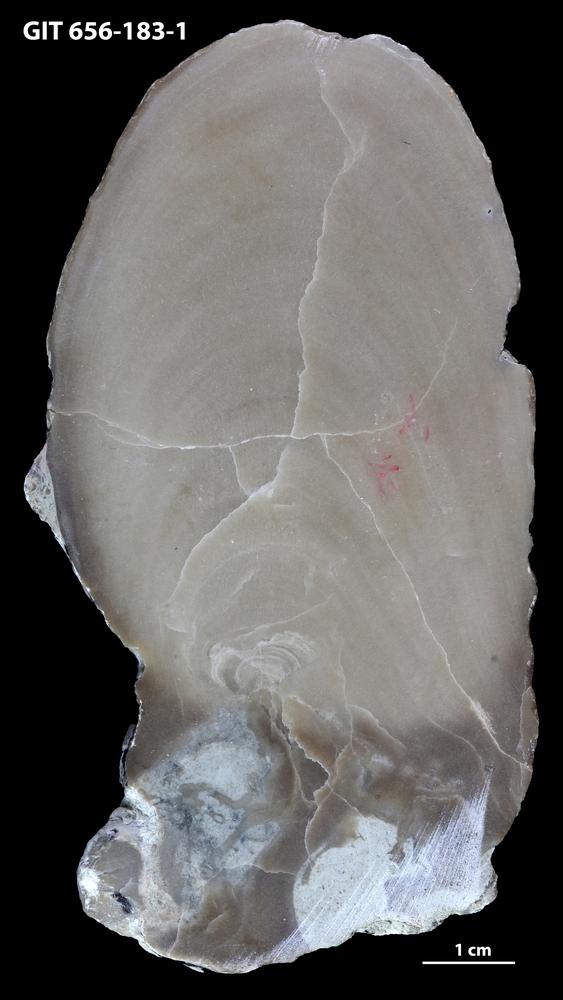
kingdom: Animalia
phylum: Porifera
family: Actinostromatidae
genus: Plectostroma
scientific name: Plectostroma
